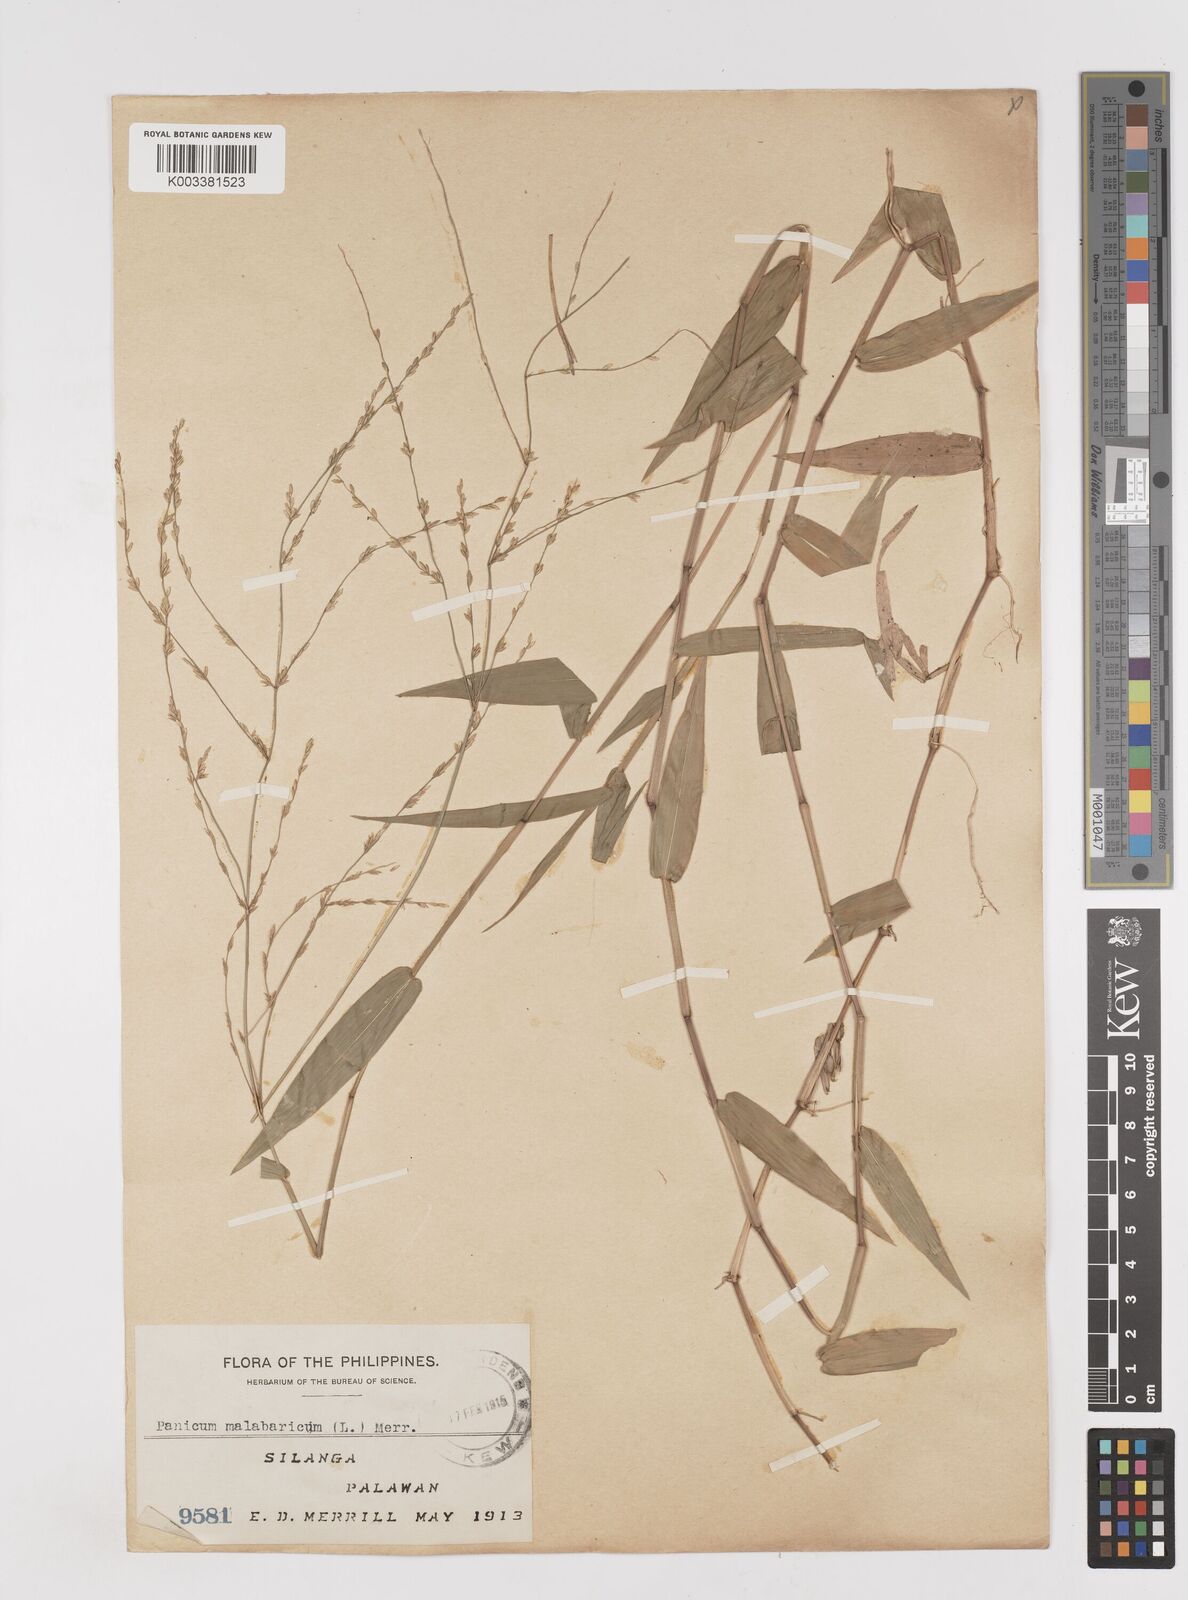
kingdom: Plantae
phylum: Tracheophyta
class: Liliopsida
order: Poales
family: Poaceae
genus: Ottochloa
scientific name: Ottochloa nodosa
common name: Slender-panic grass
